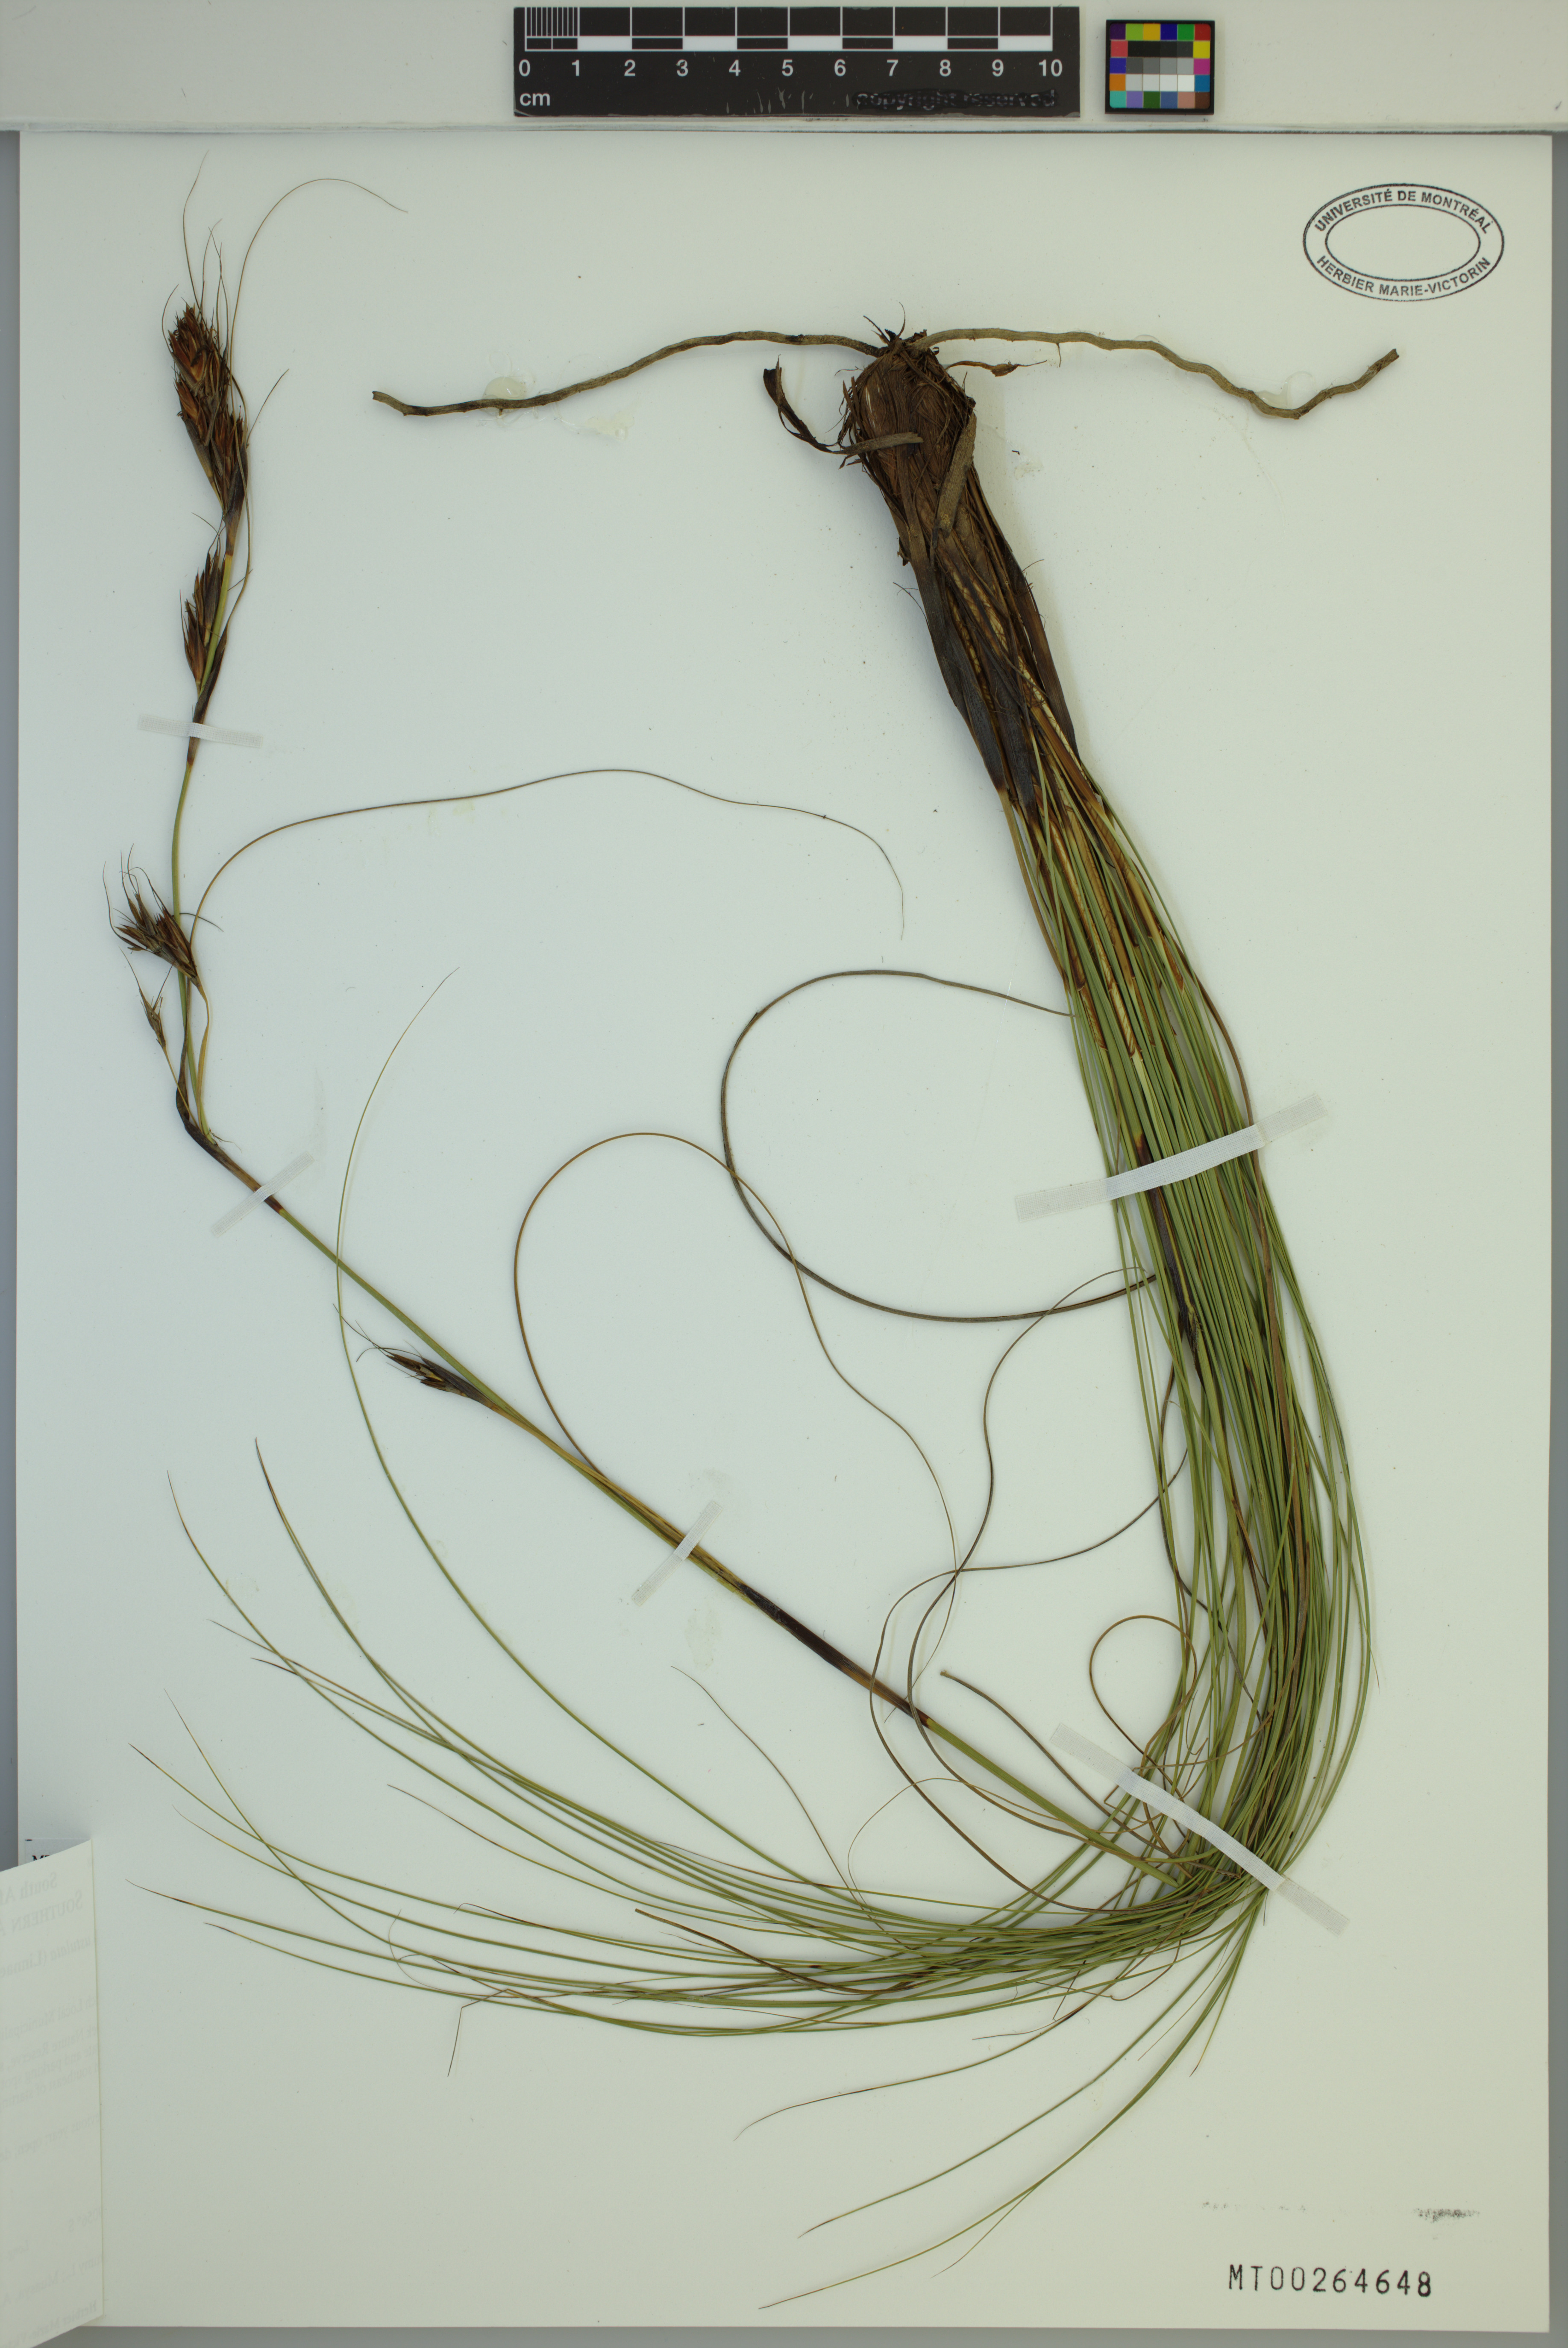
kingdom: Plantae
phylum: Tracheophyta
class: Liliopsida
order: Poales
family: Cyperaceae
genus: Tetraria
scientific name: Tetraria ustulata
